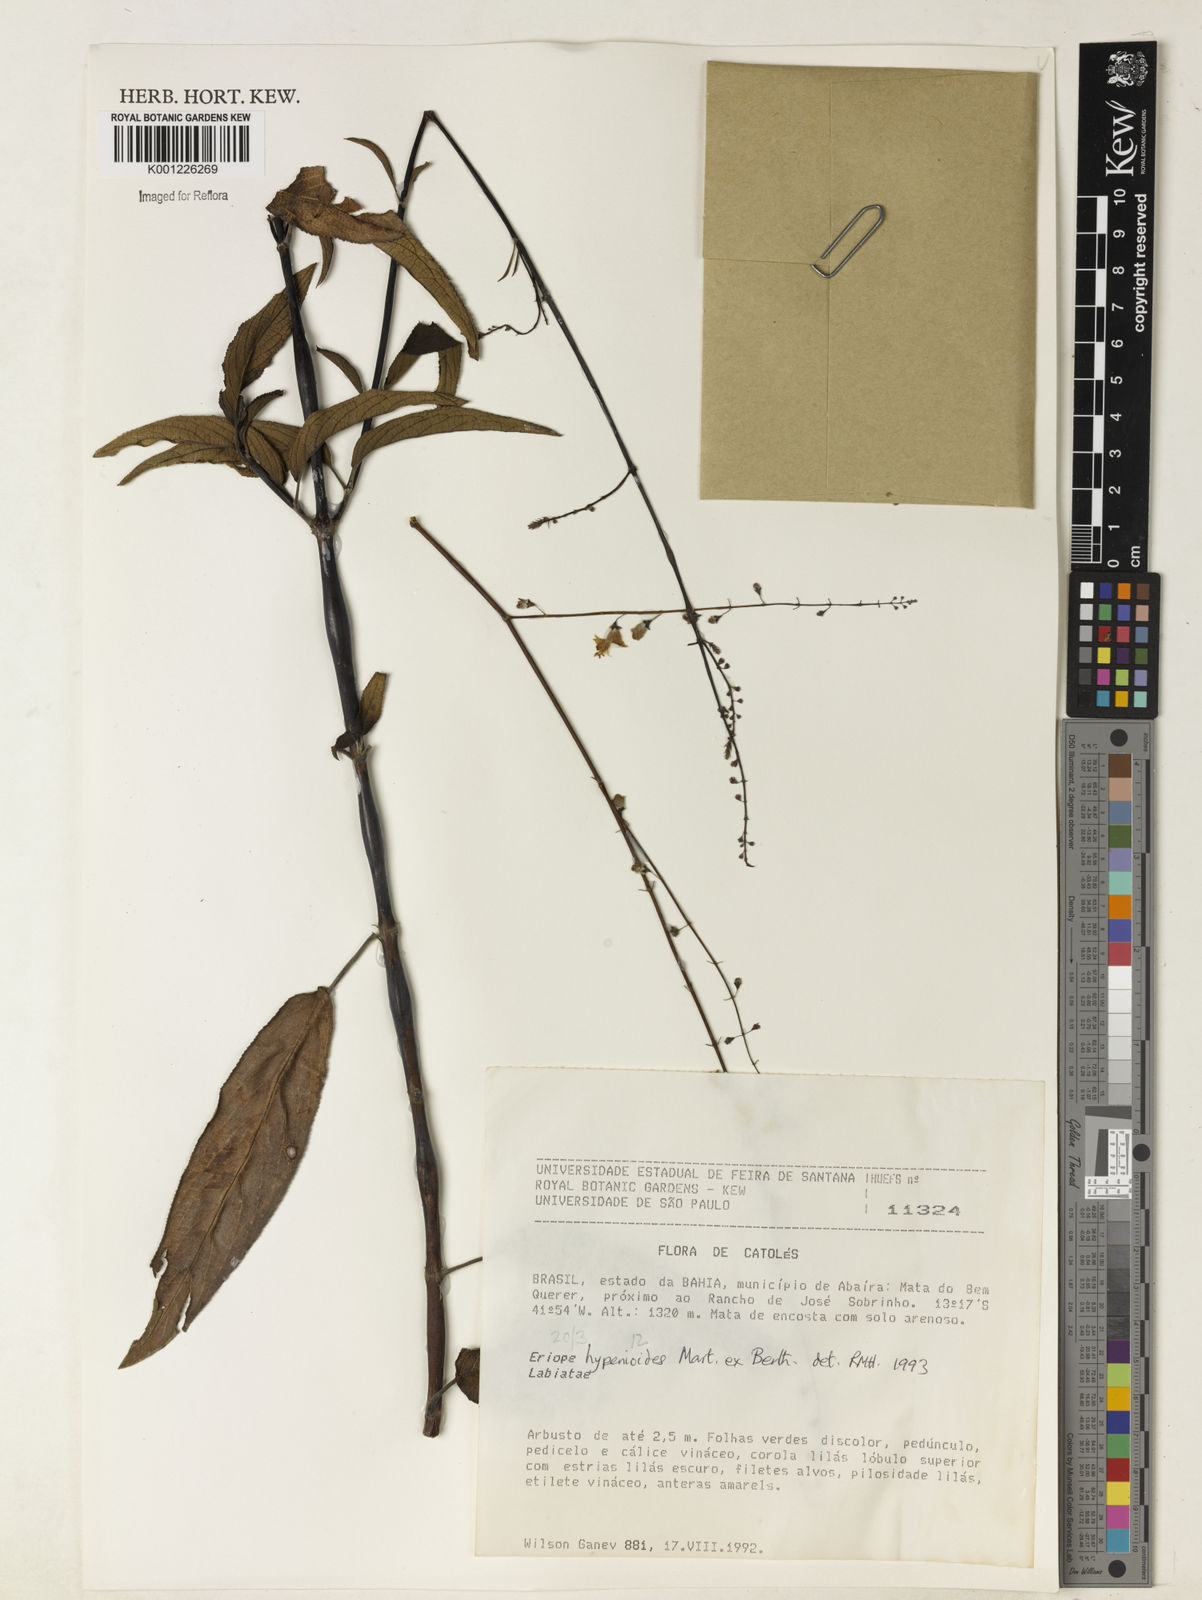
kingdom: Plantae
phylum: Tracheophyta
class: Magnoliopsida
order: Lamiales
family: Lamiaceae
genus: Eriope
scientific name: Eriope hypenioides
